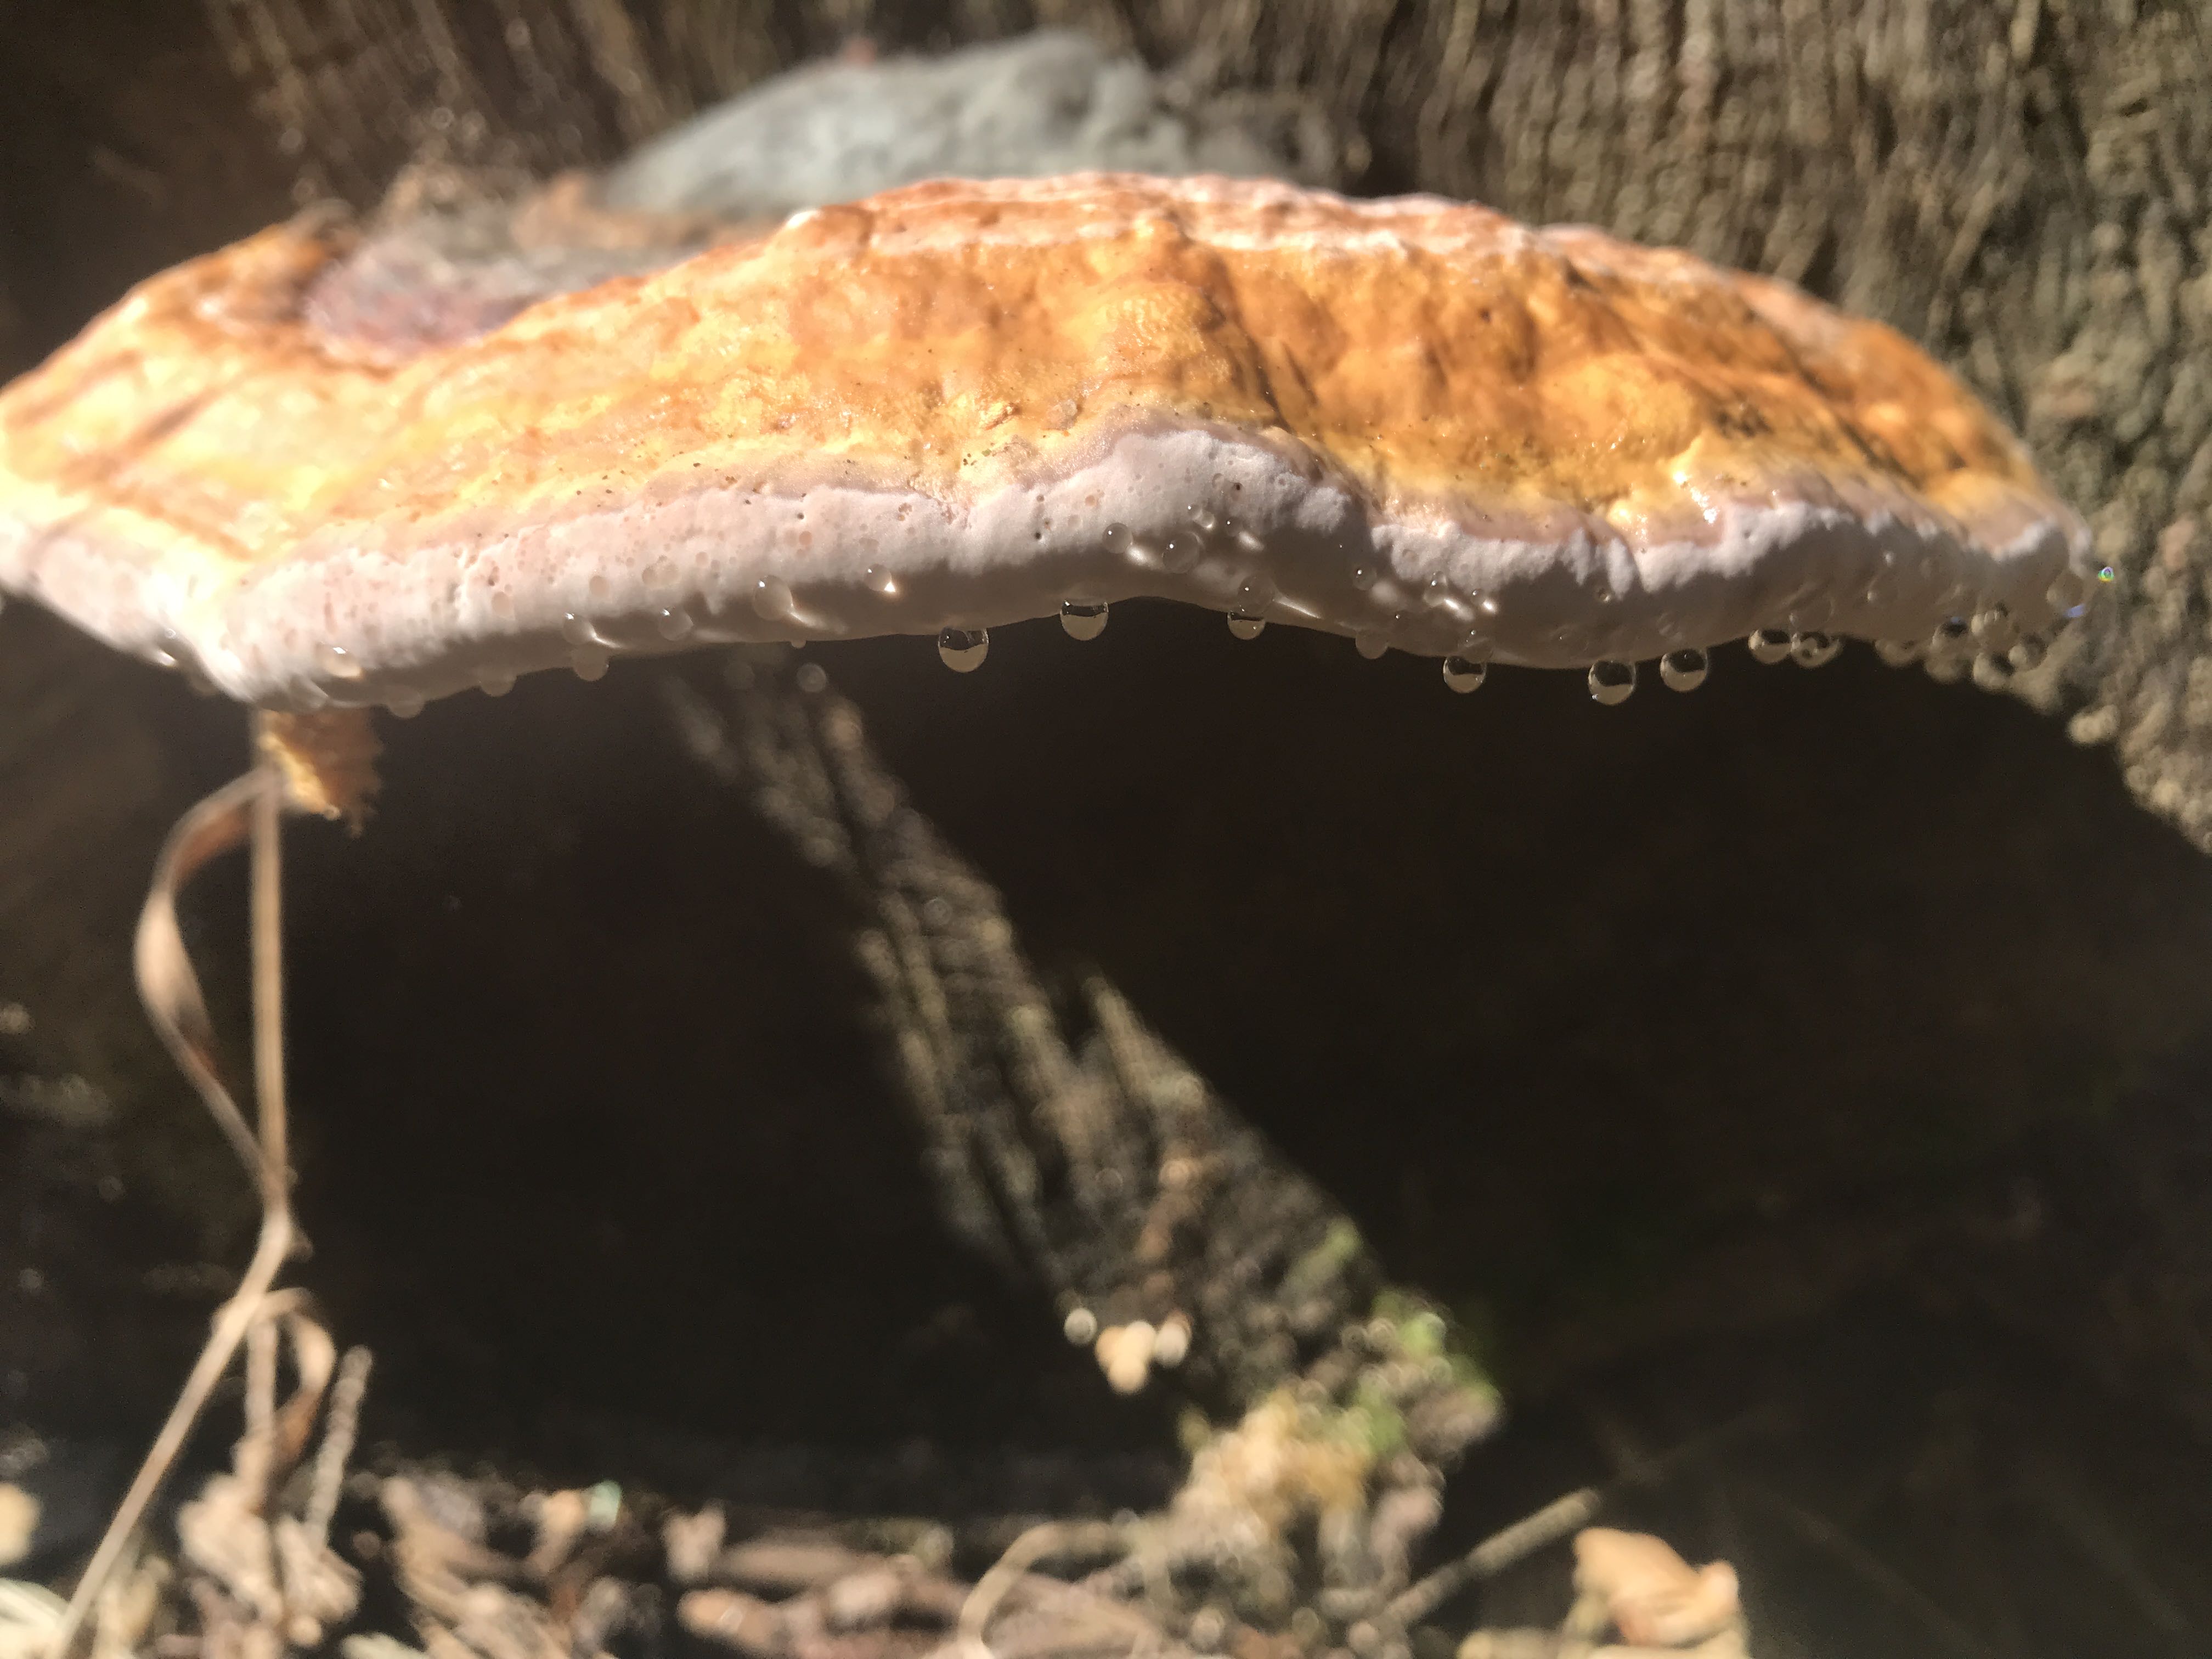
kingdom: Fungi
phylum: Basidiomycota
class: Agaricomycetes
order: Polyporales
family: Fomitopsidaceae
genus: Fomitopsis
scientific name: Fomitopsis pinicola
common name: randbæltet hovporesvamp
